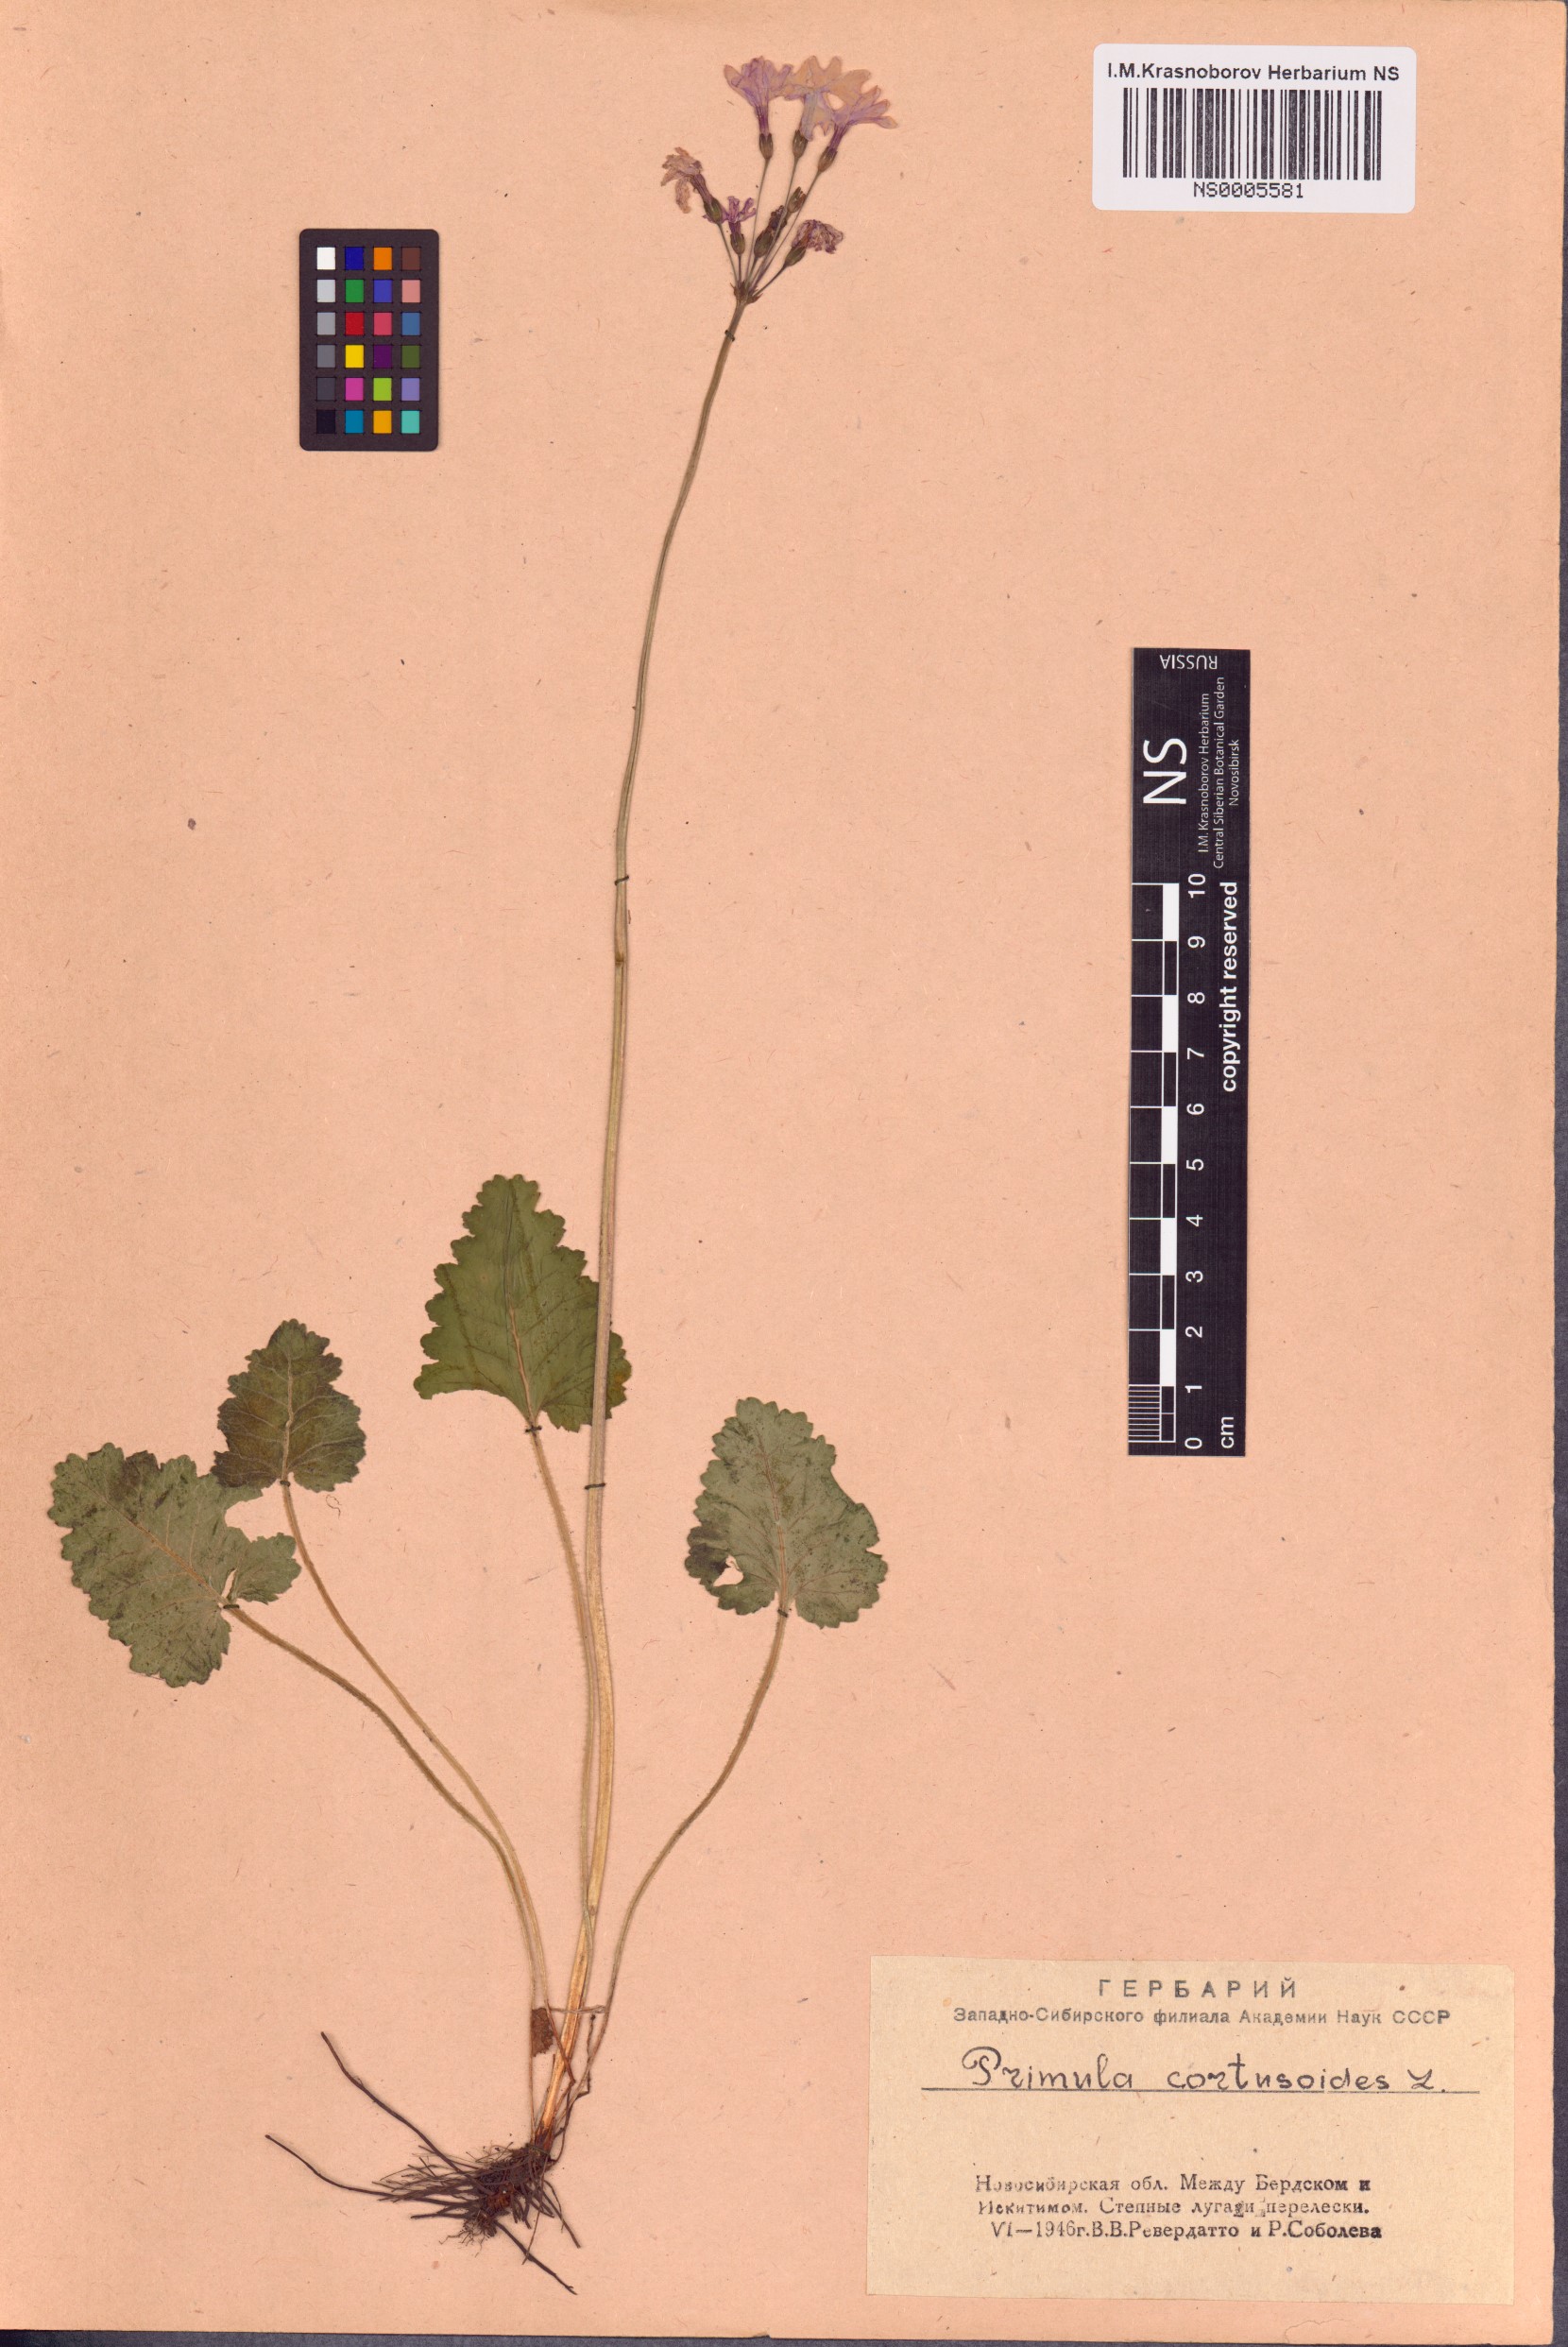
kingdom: Plantae
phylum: Tracheophyta
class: Magnoliopsida
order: Ericales
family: Primulaceae
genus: Primula
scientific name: Primula cortusoides
